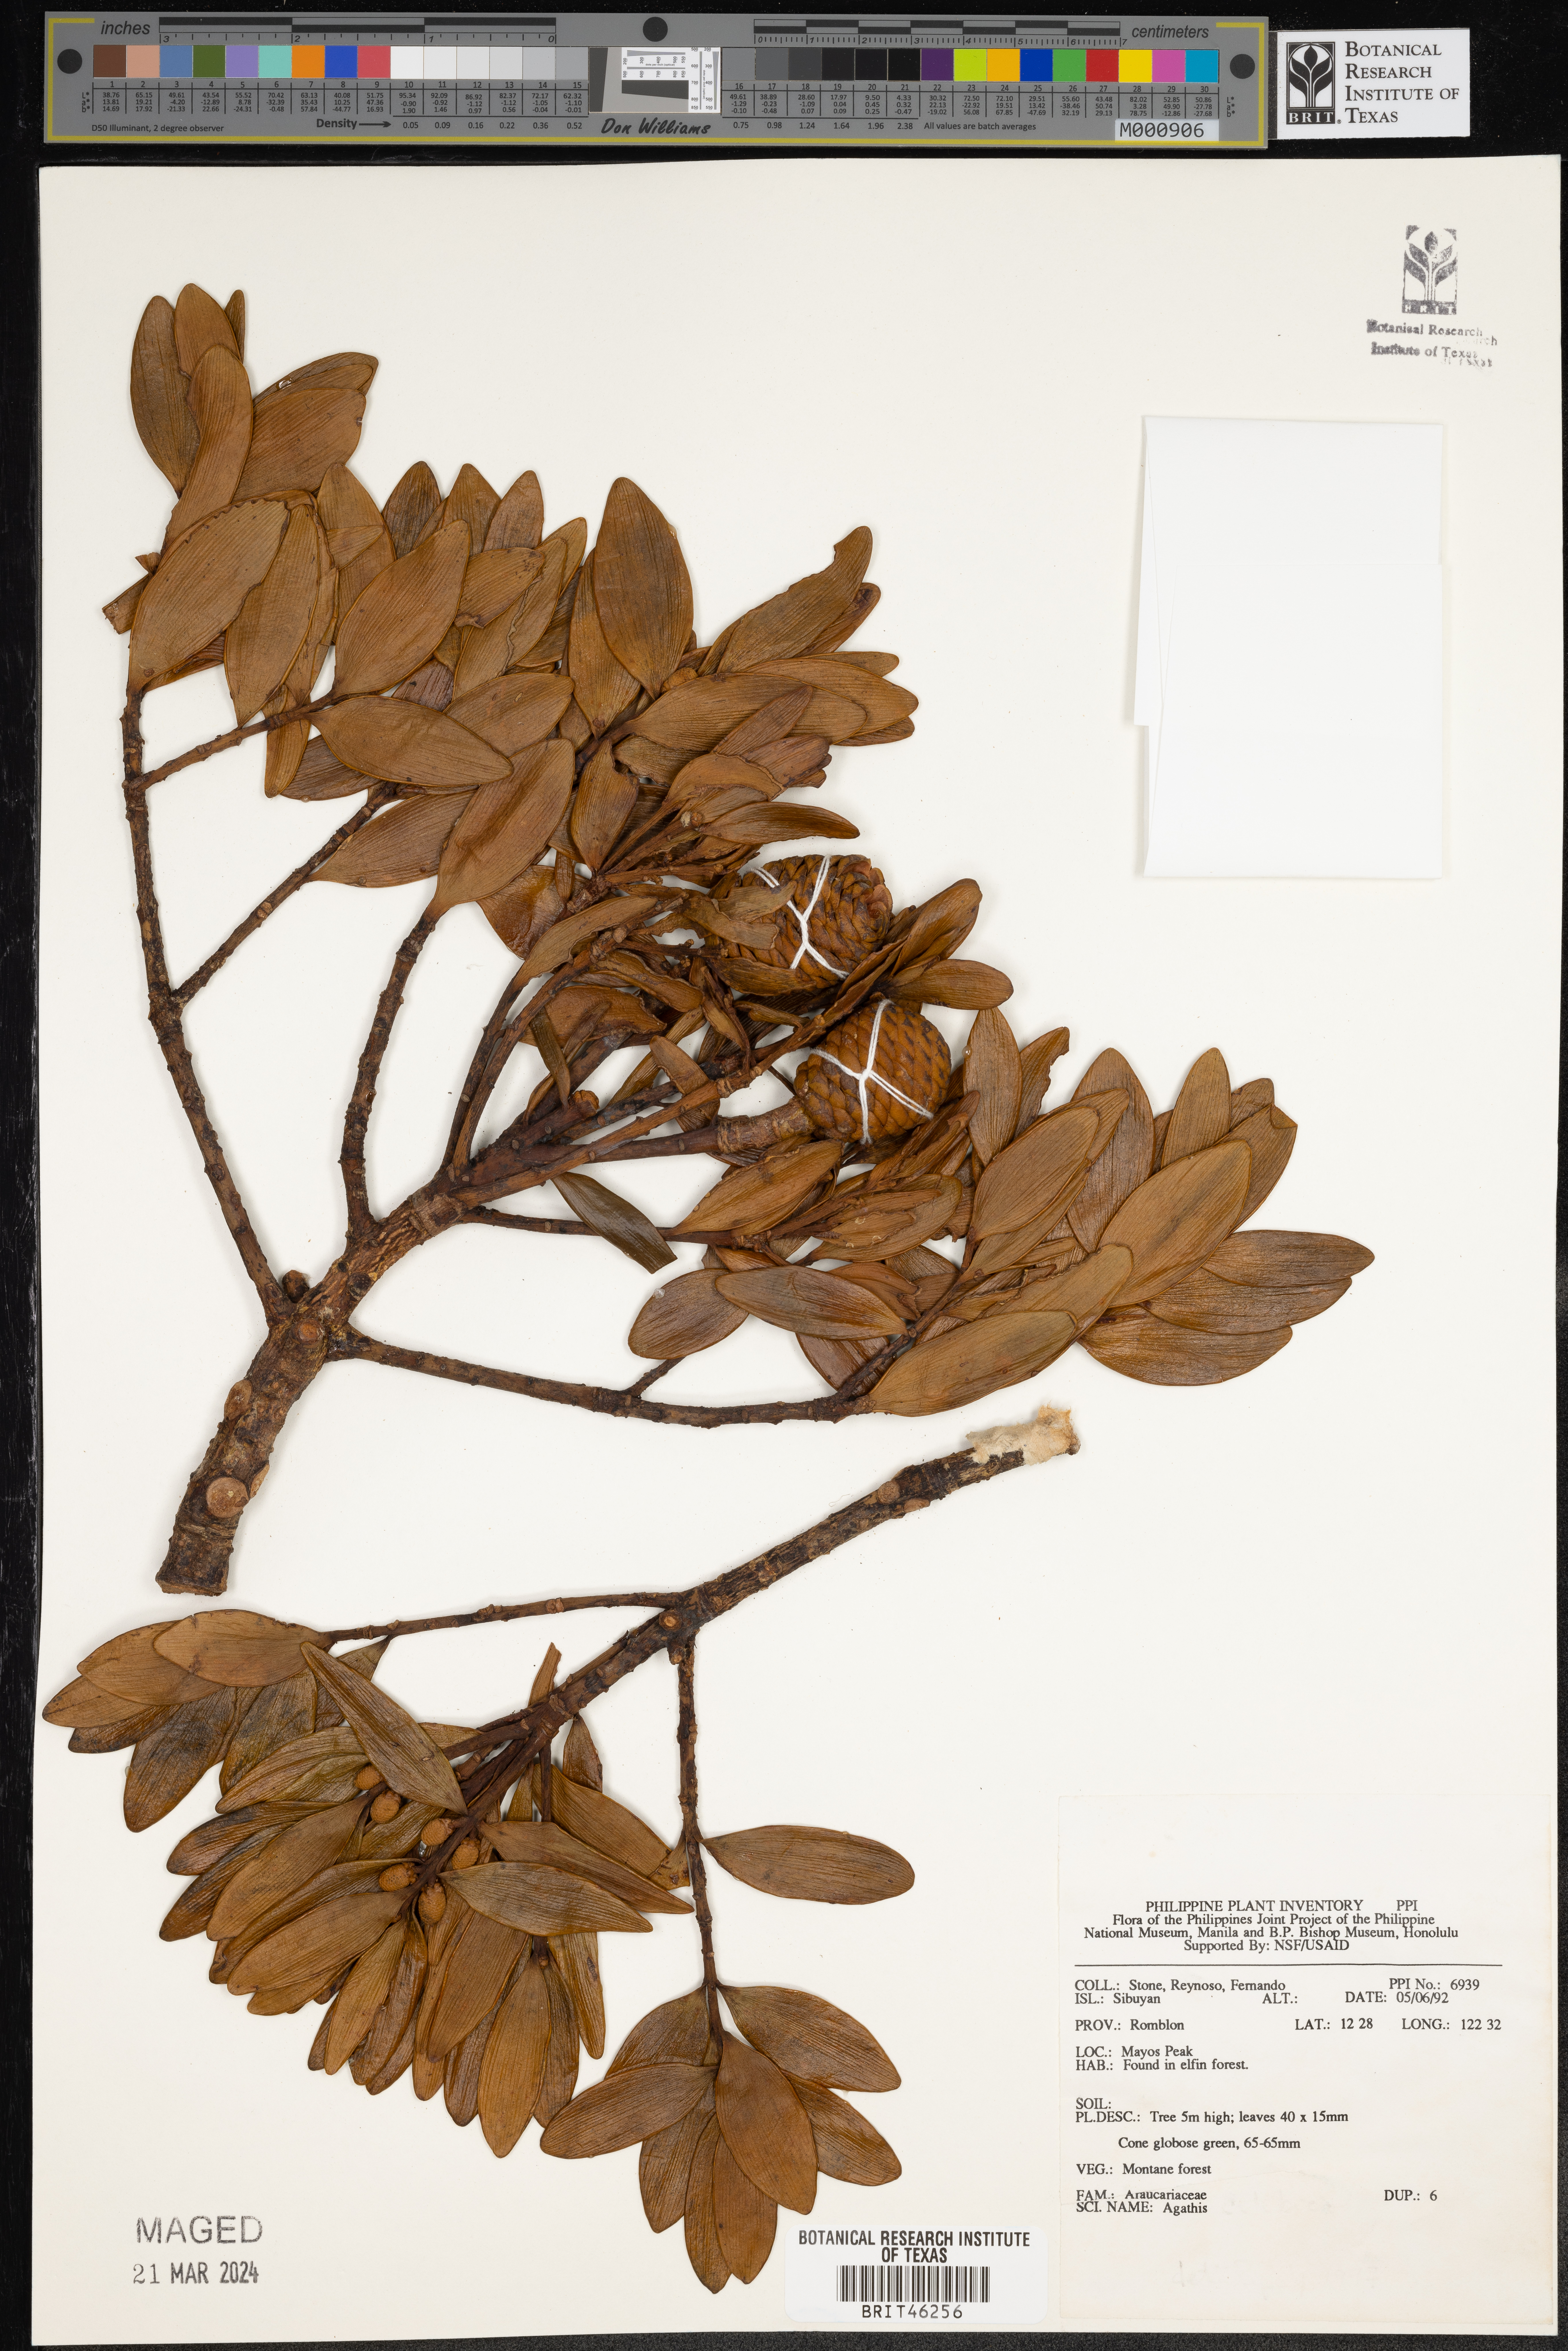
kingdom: Plantae
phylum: Tracheophyta
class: Pinopsida
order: Pinales
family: Araucariaceae
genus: Agathis
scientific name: Agathis
